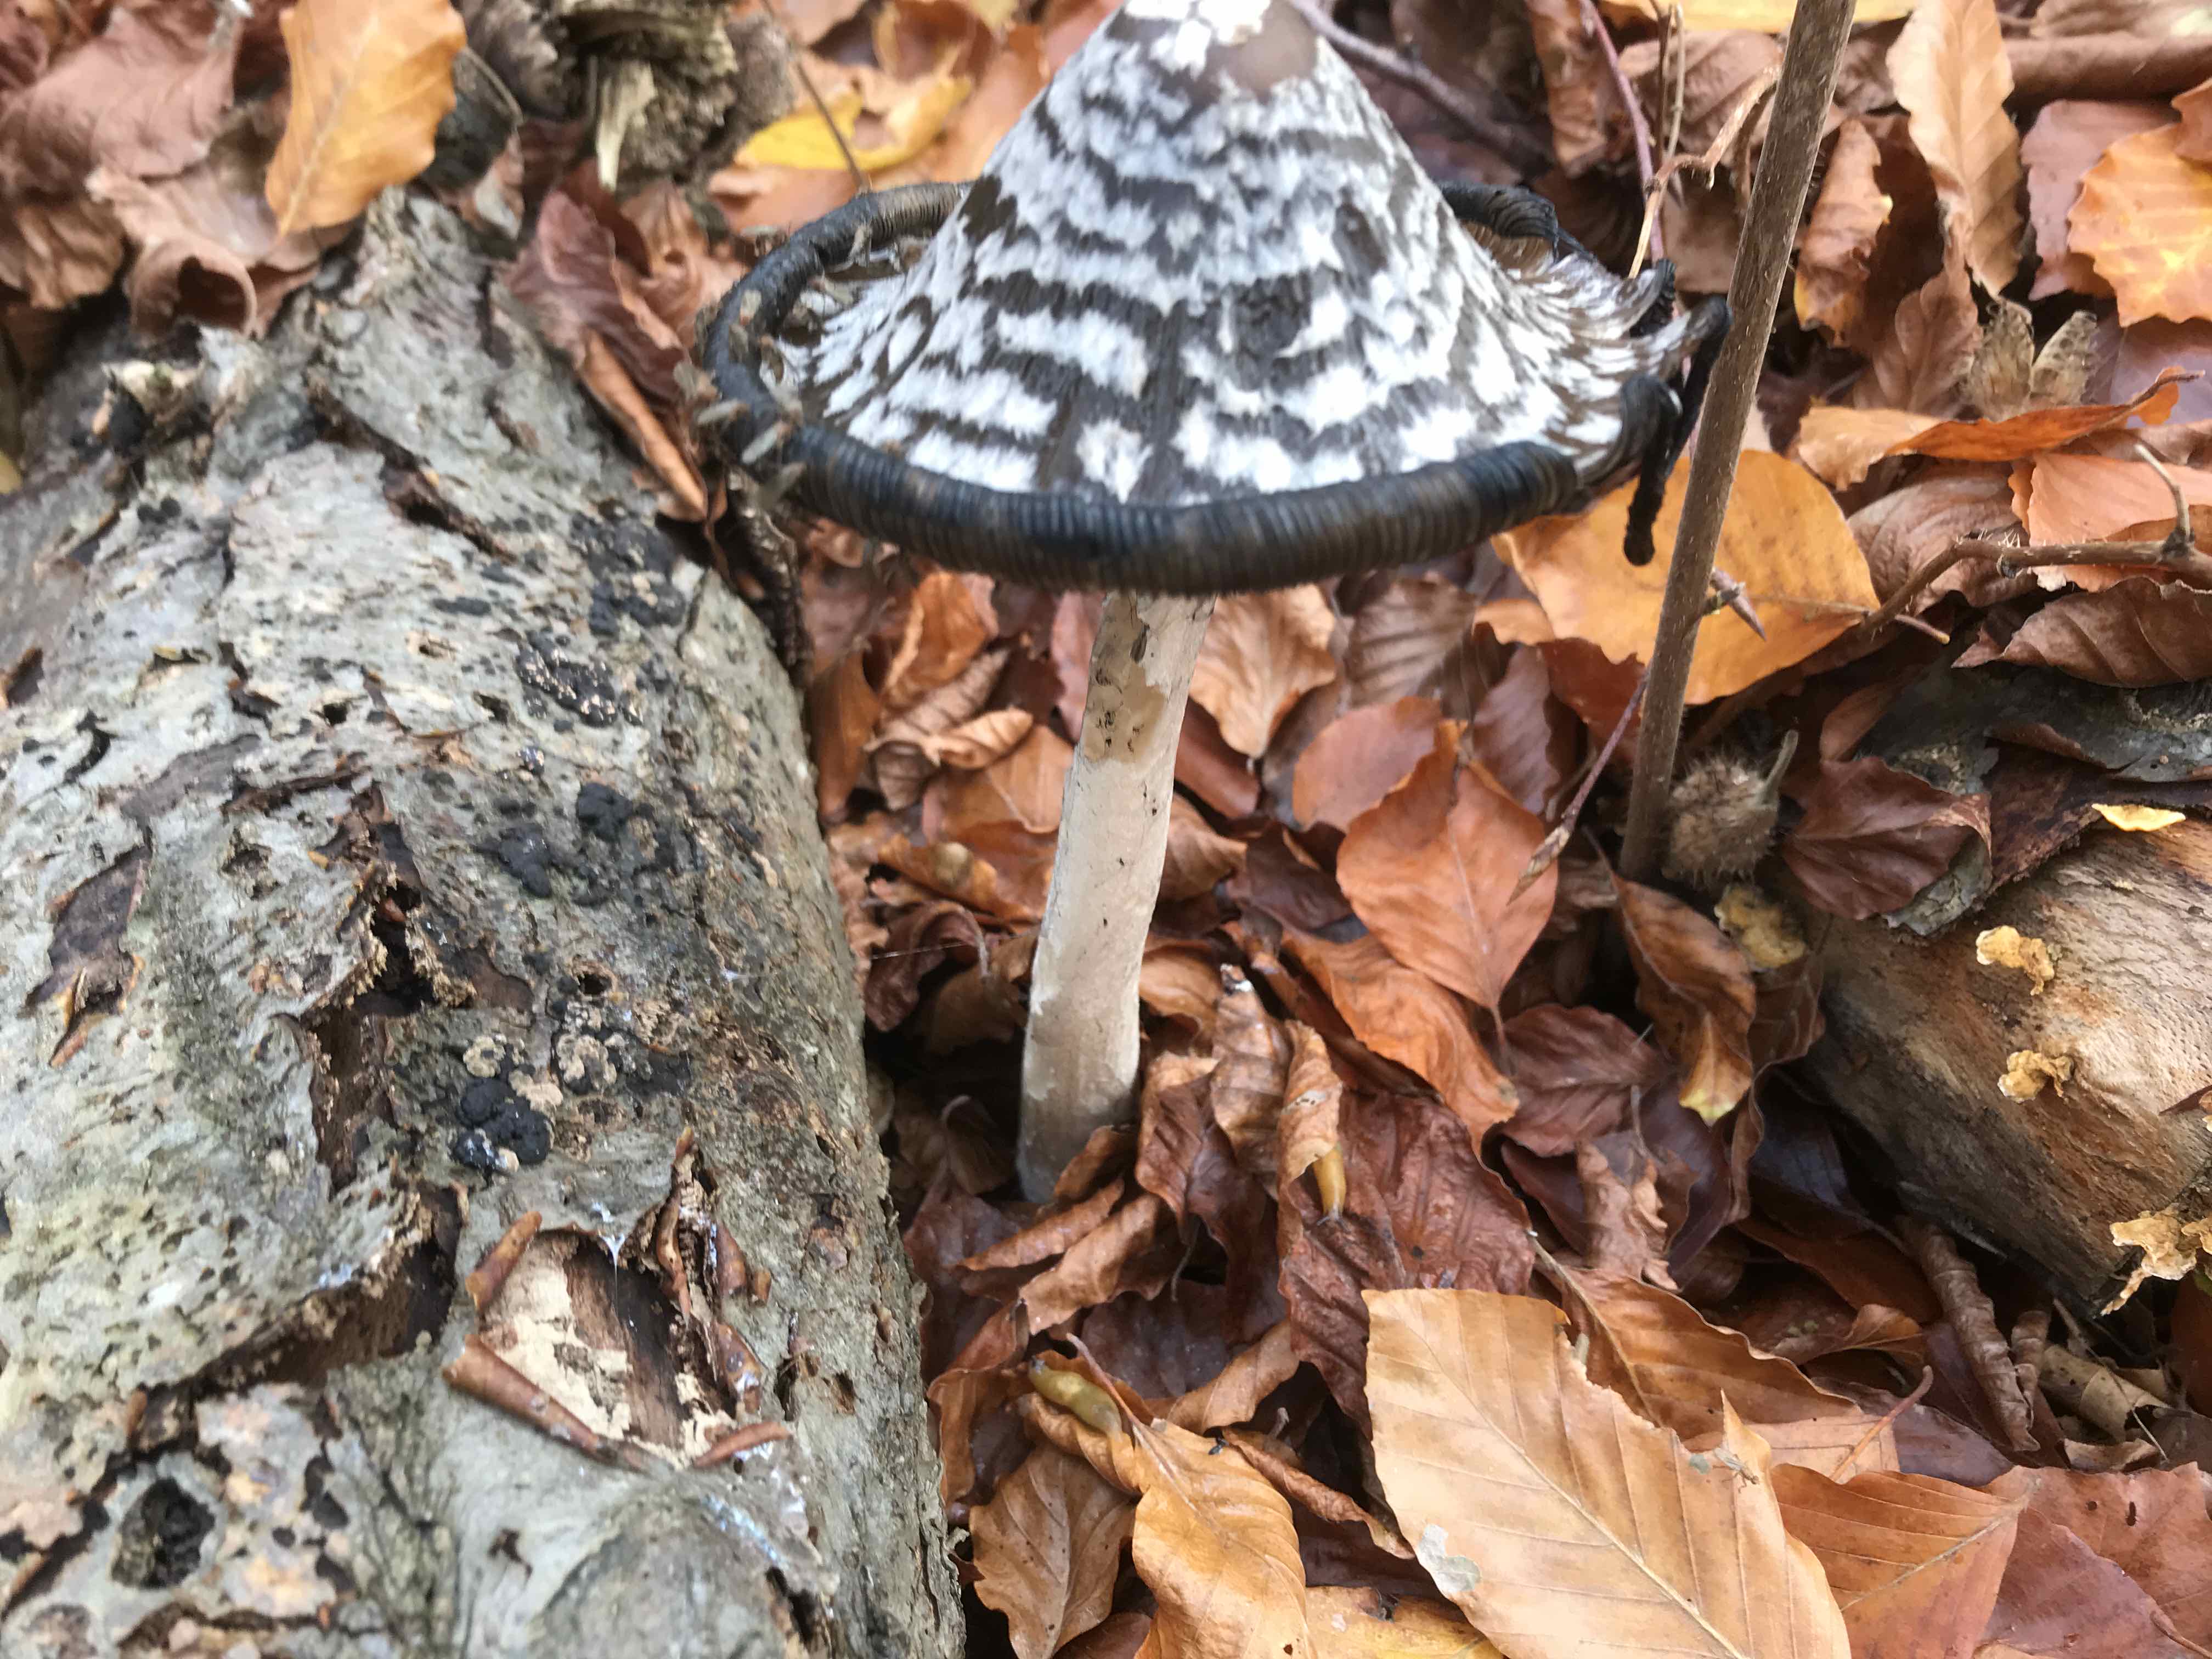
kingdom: Fungi
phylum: Basidiomycota
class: Agaricomycetes
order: Agaricales
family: Psathyrellaceae
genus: Coprinopsis
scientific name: Coprinopsis picacea
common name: skade-blækhat
